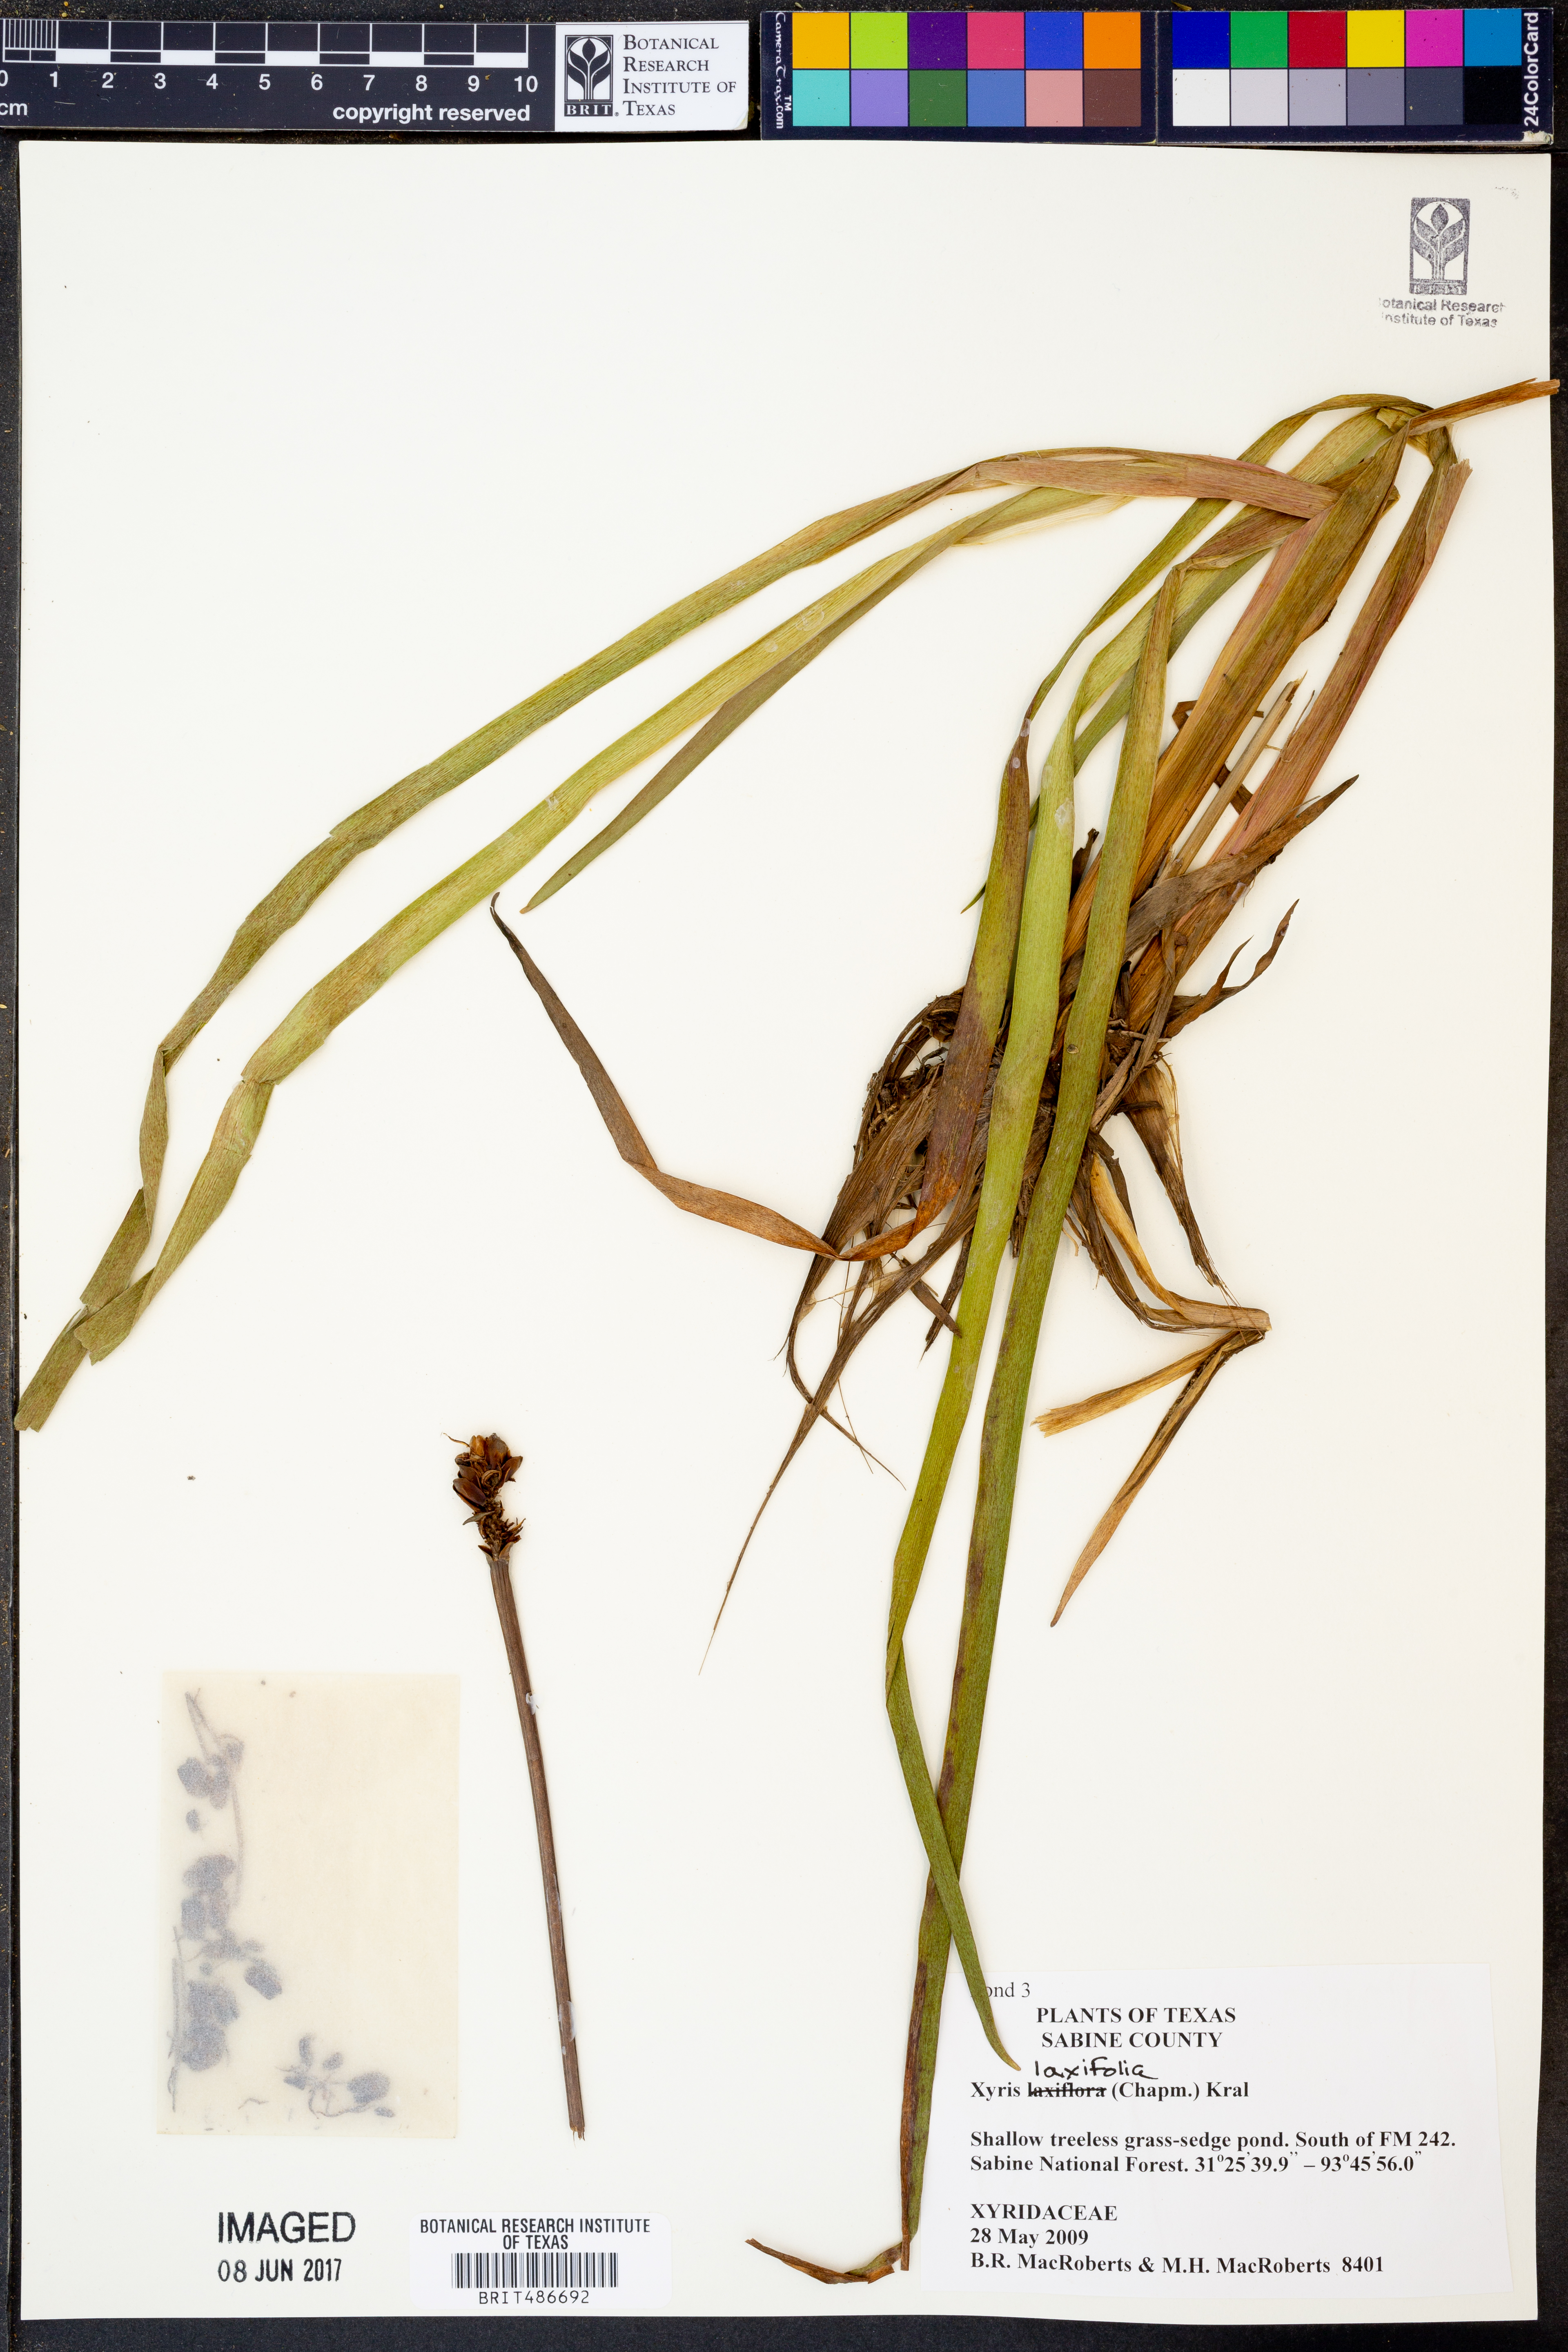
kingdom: Plantae
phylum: Tracheophyta
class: Liliopsida
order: Poales
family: Xyridaceae
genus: Xyris
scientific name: Xyris laxifolia
